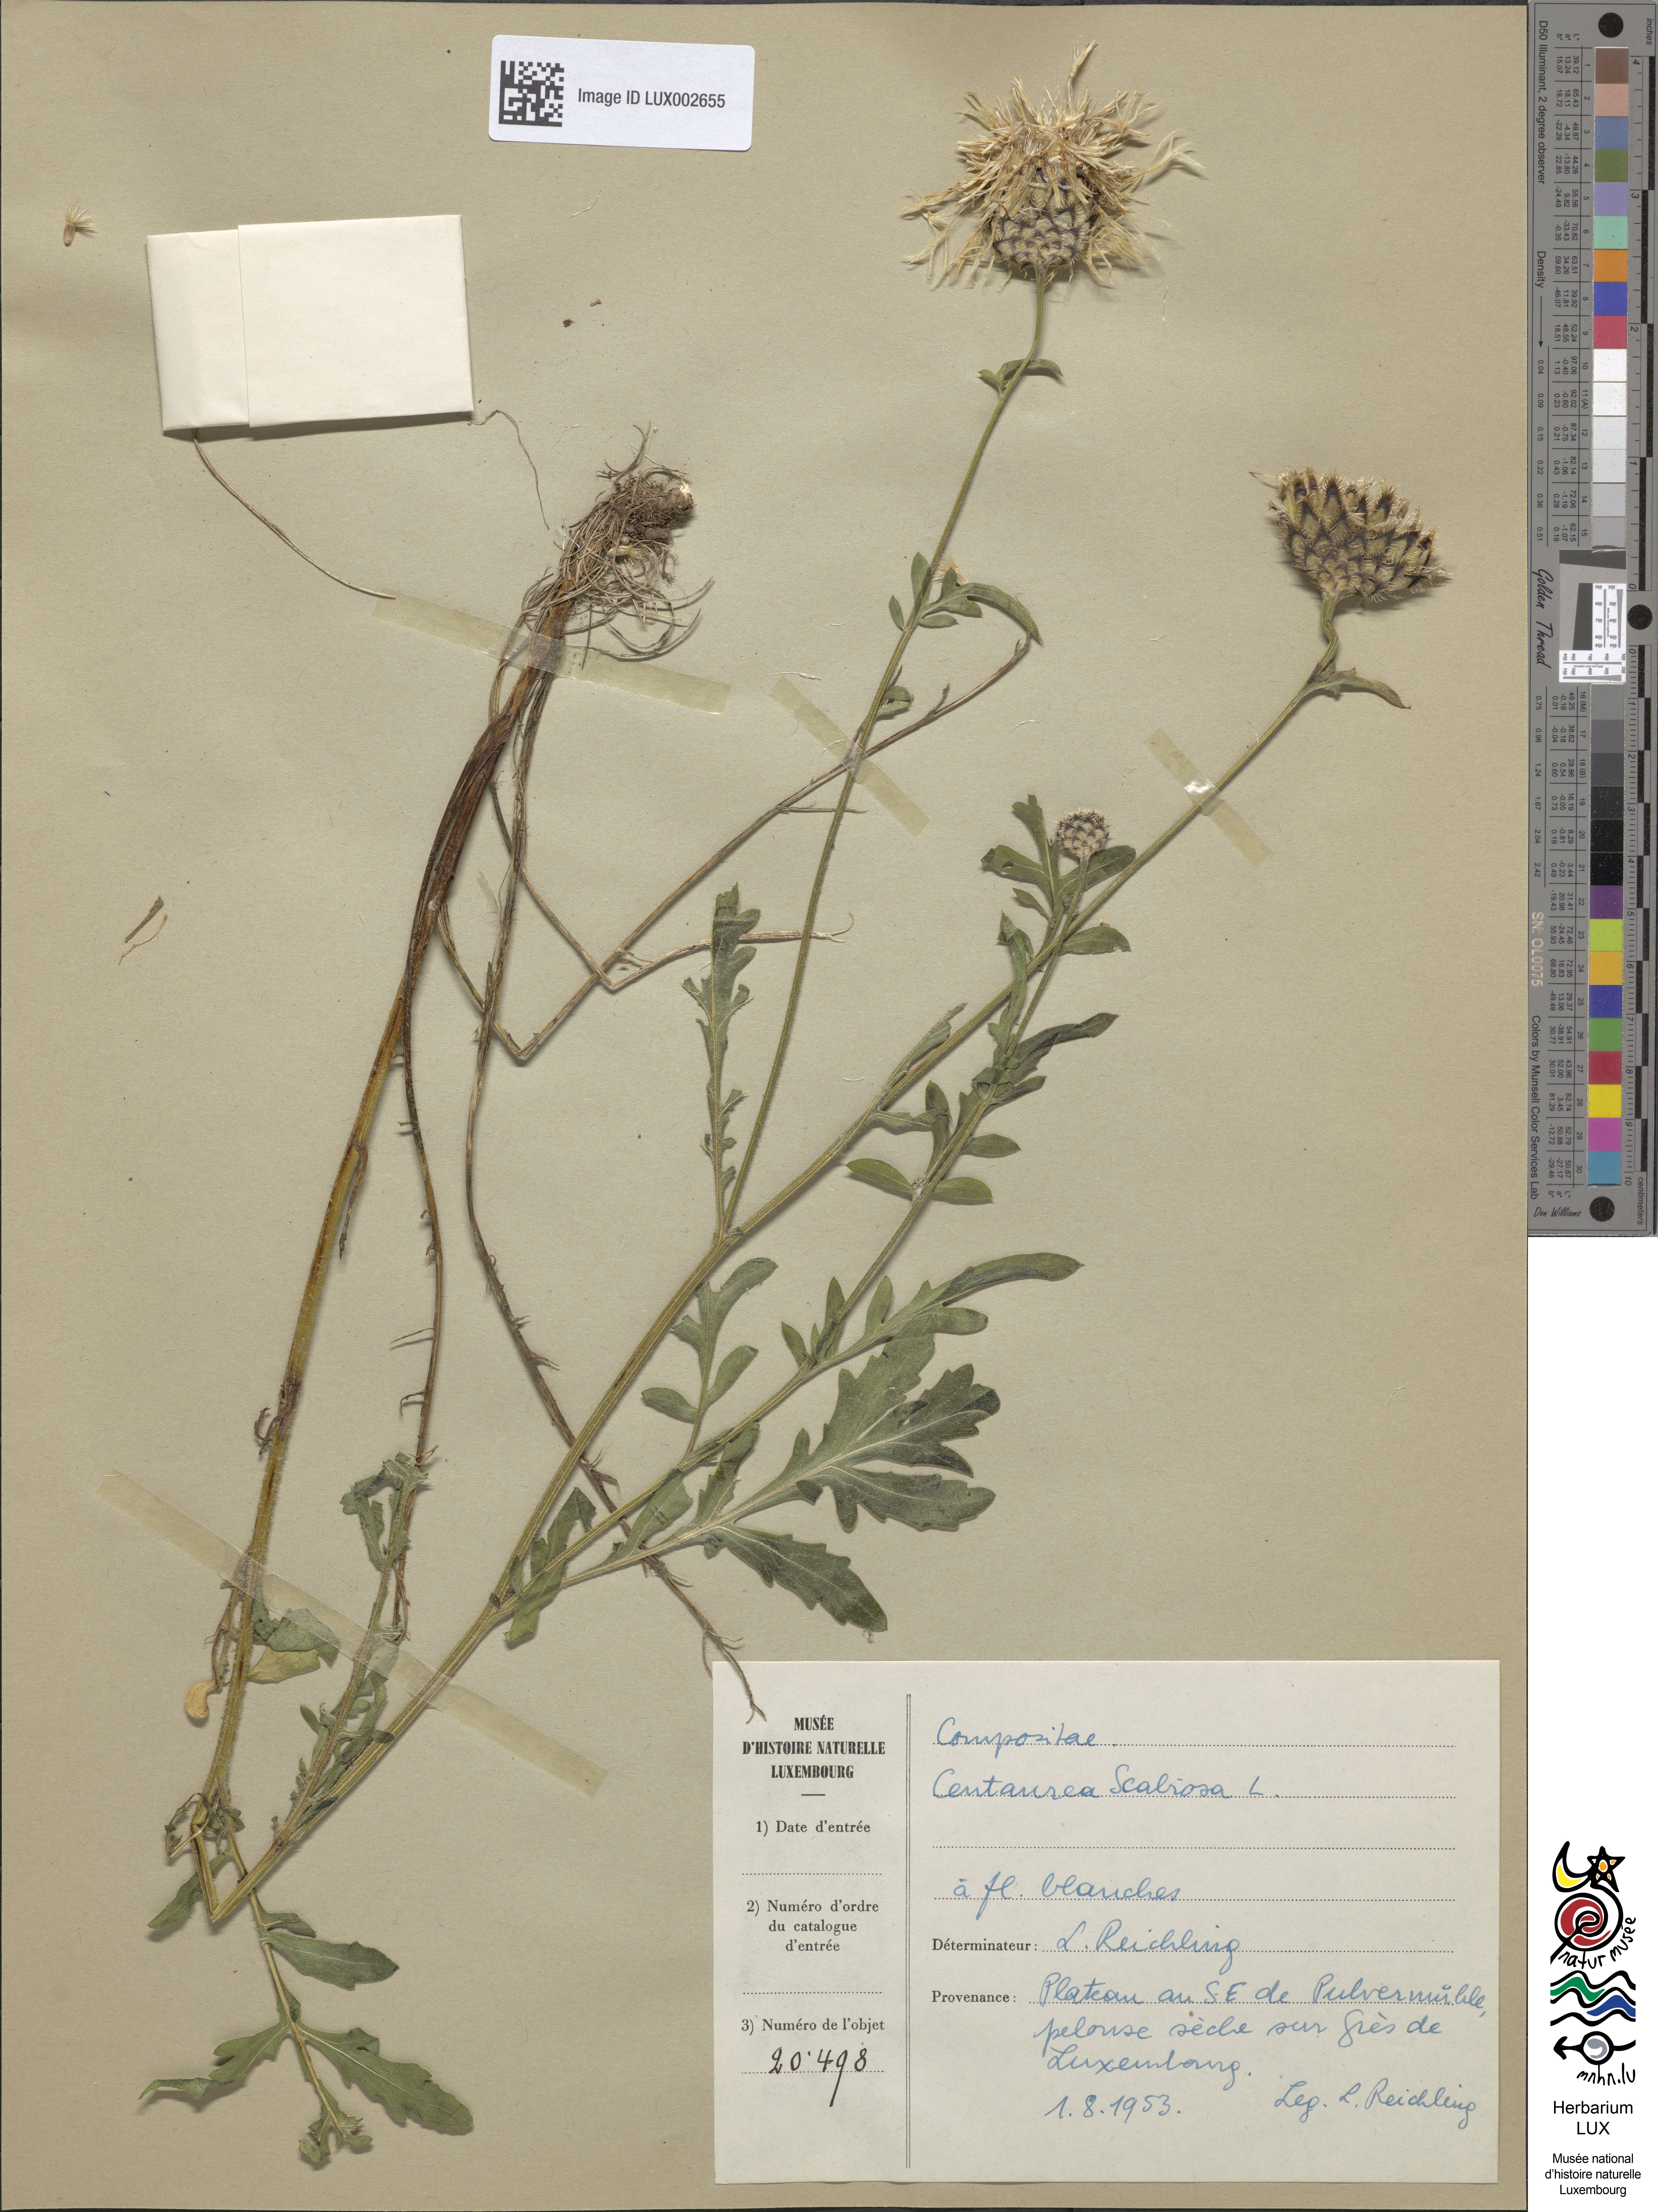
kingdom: Plantae
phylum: Tracheophyta
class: Magnoliopsida
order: Asterales
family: Asteraceae
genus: Centaurea
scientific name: Centaurea scabiosa
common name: Greater knapweed
